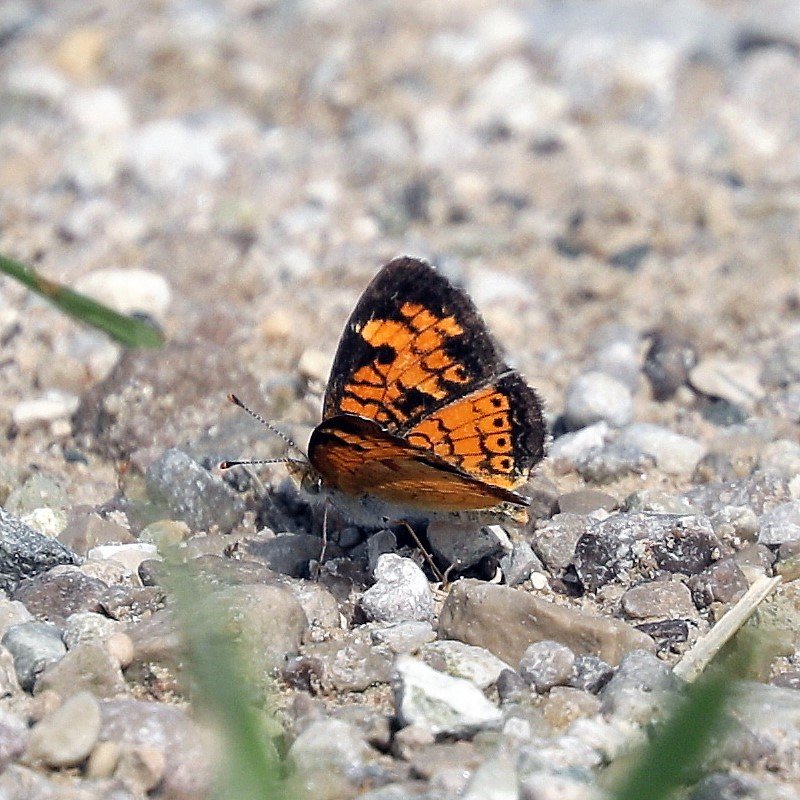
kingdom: Animalia
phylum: Arthropoda
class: Insecta
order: Lepidoptera
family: Nymphalidae
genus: Phyciodes
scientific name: Phyciodes tharos
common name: Northern Crescent
